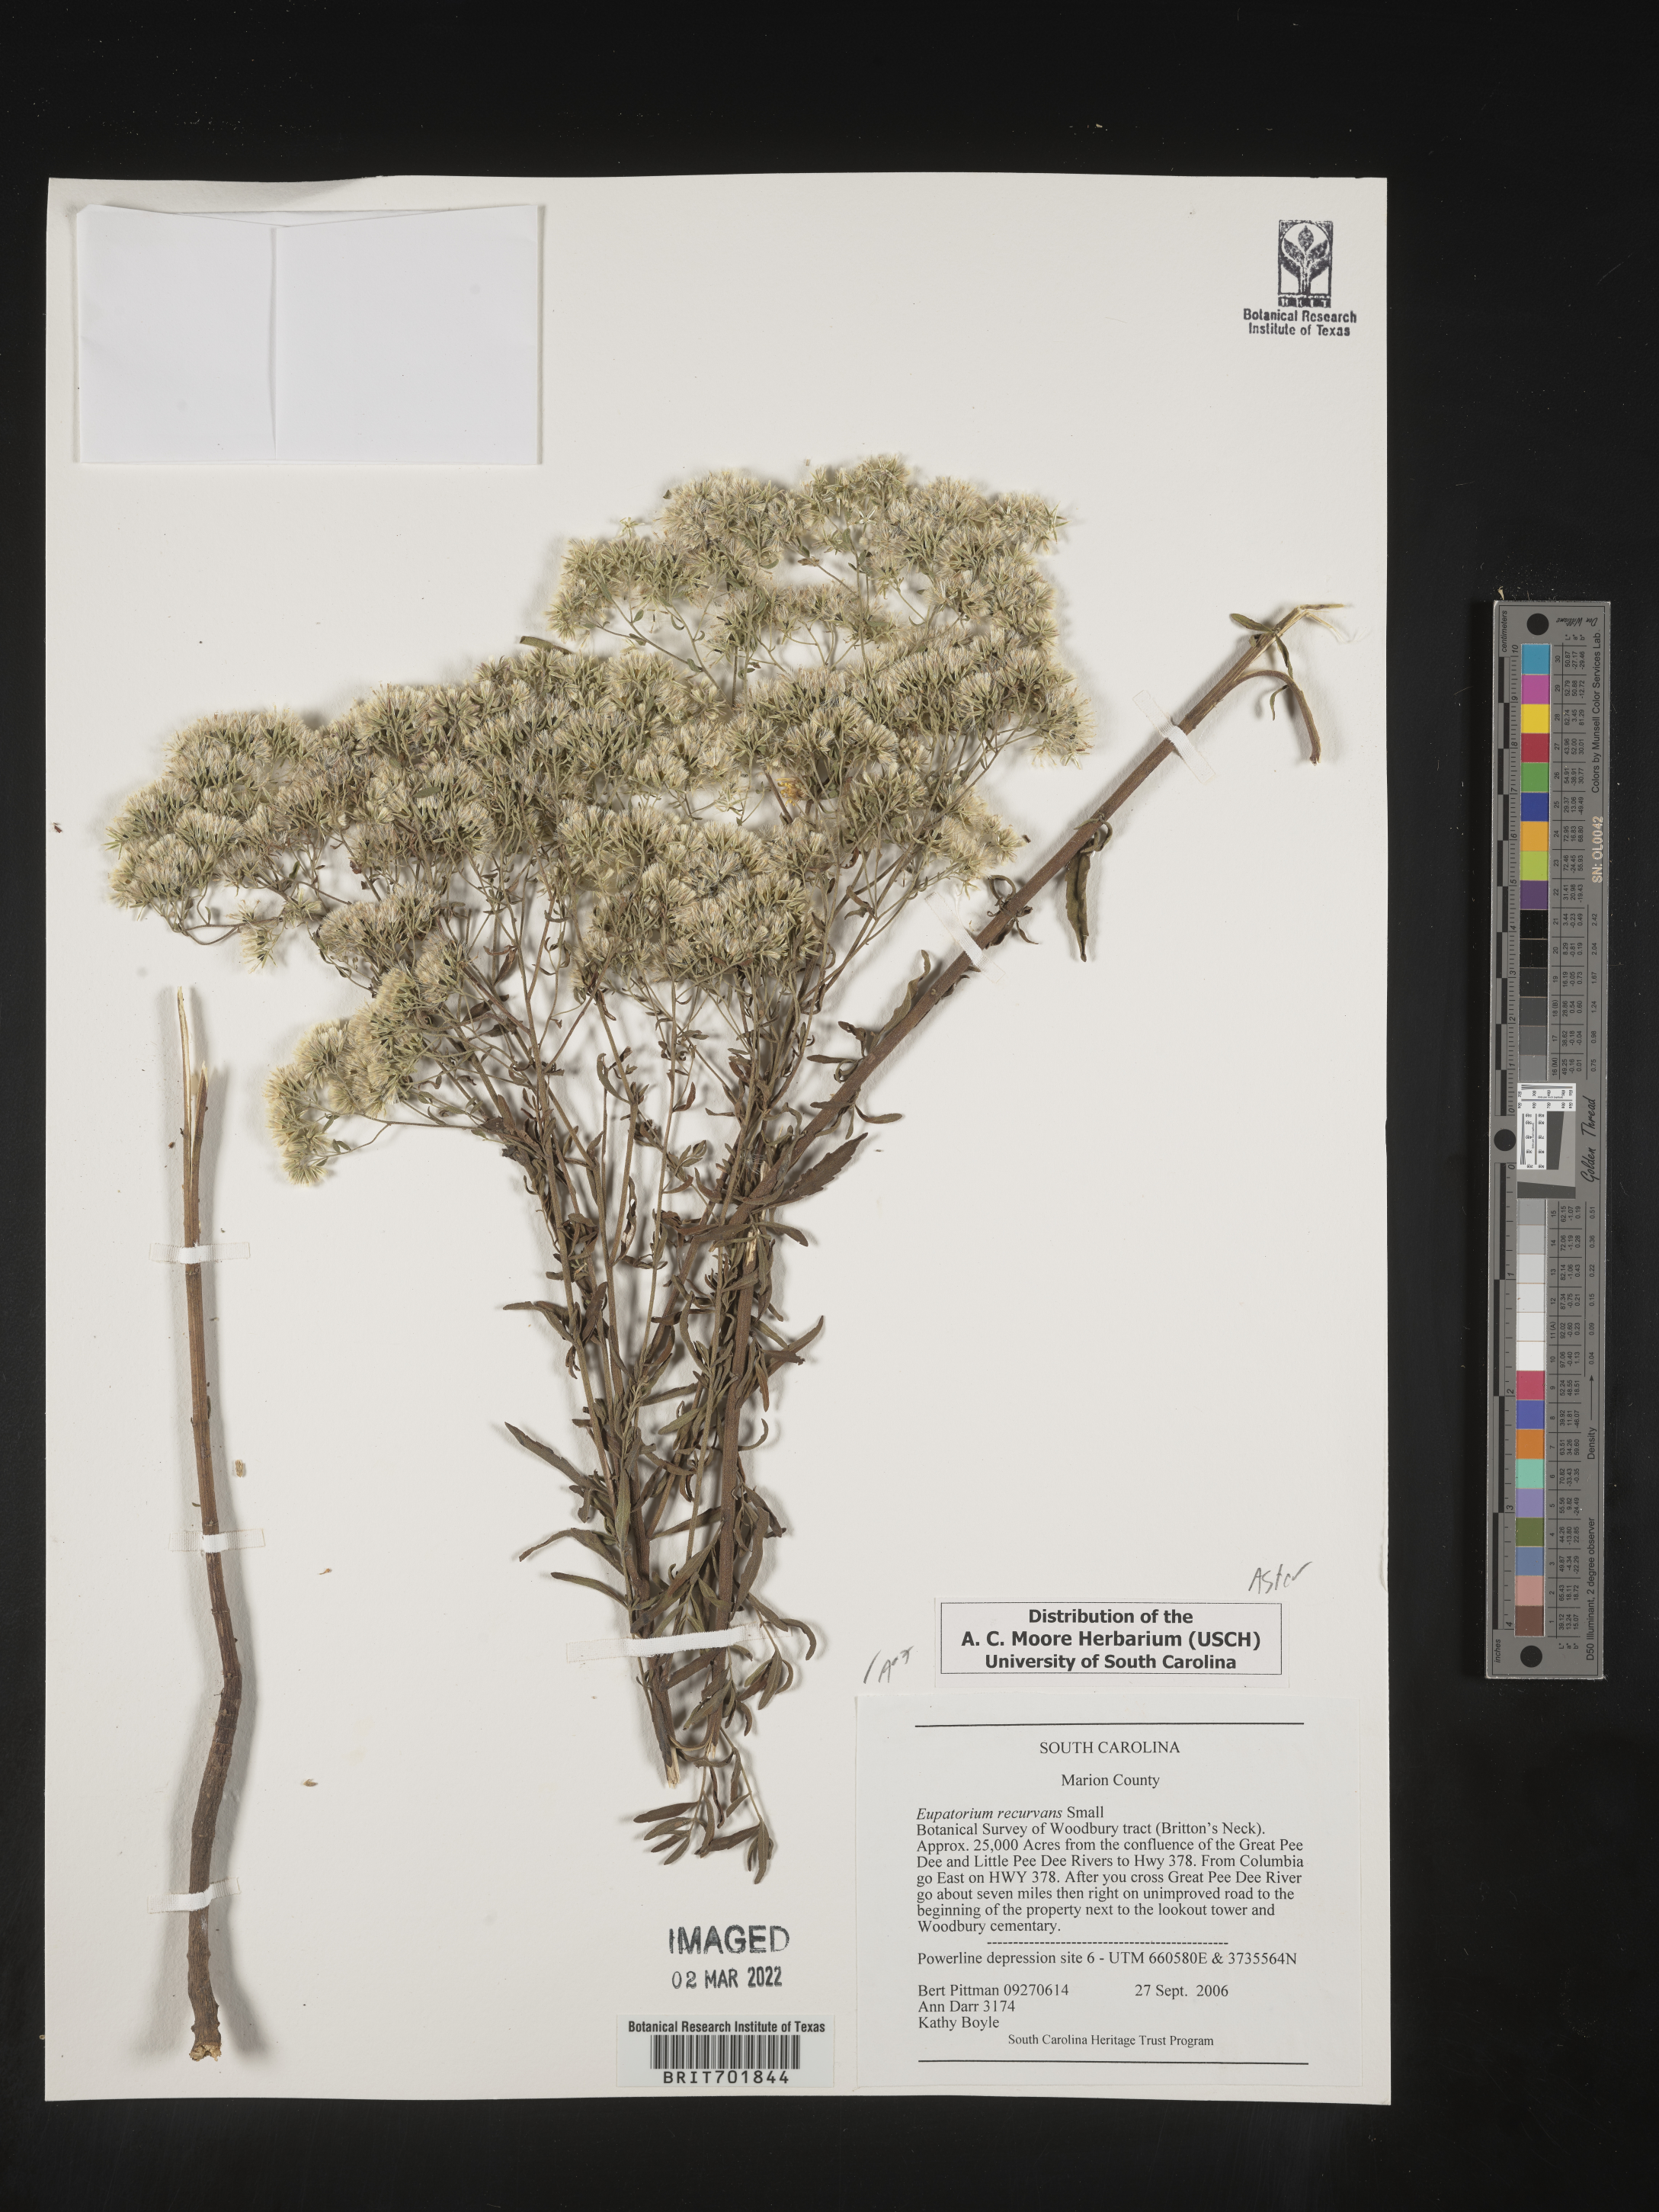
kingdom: Plantae
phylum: Tracheophyta
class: Magnoliopsida
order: Asterales
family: Asteraceae
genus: Eupatorium
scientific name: Eupatorium mohrii
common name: Mohr's thoroughwort
